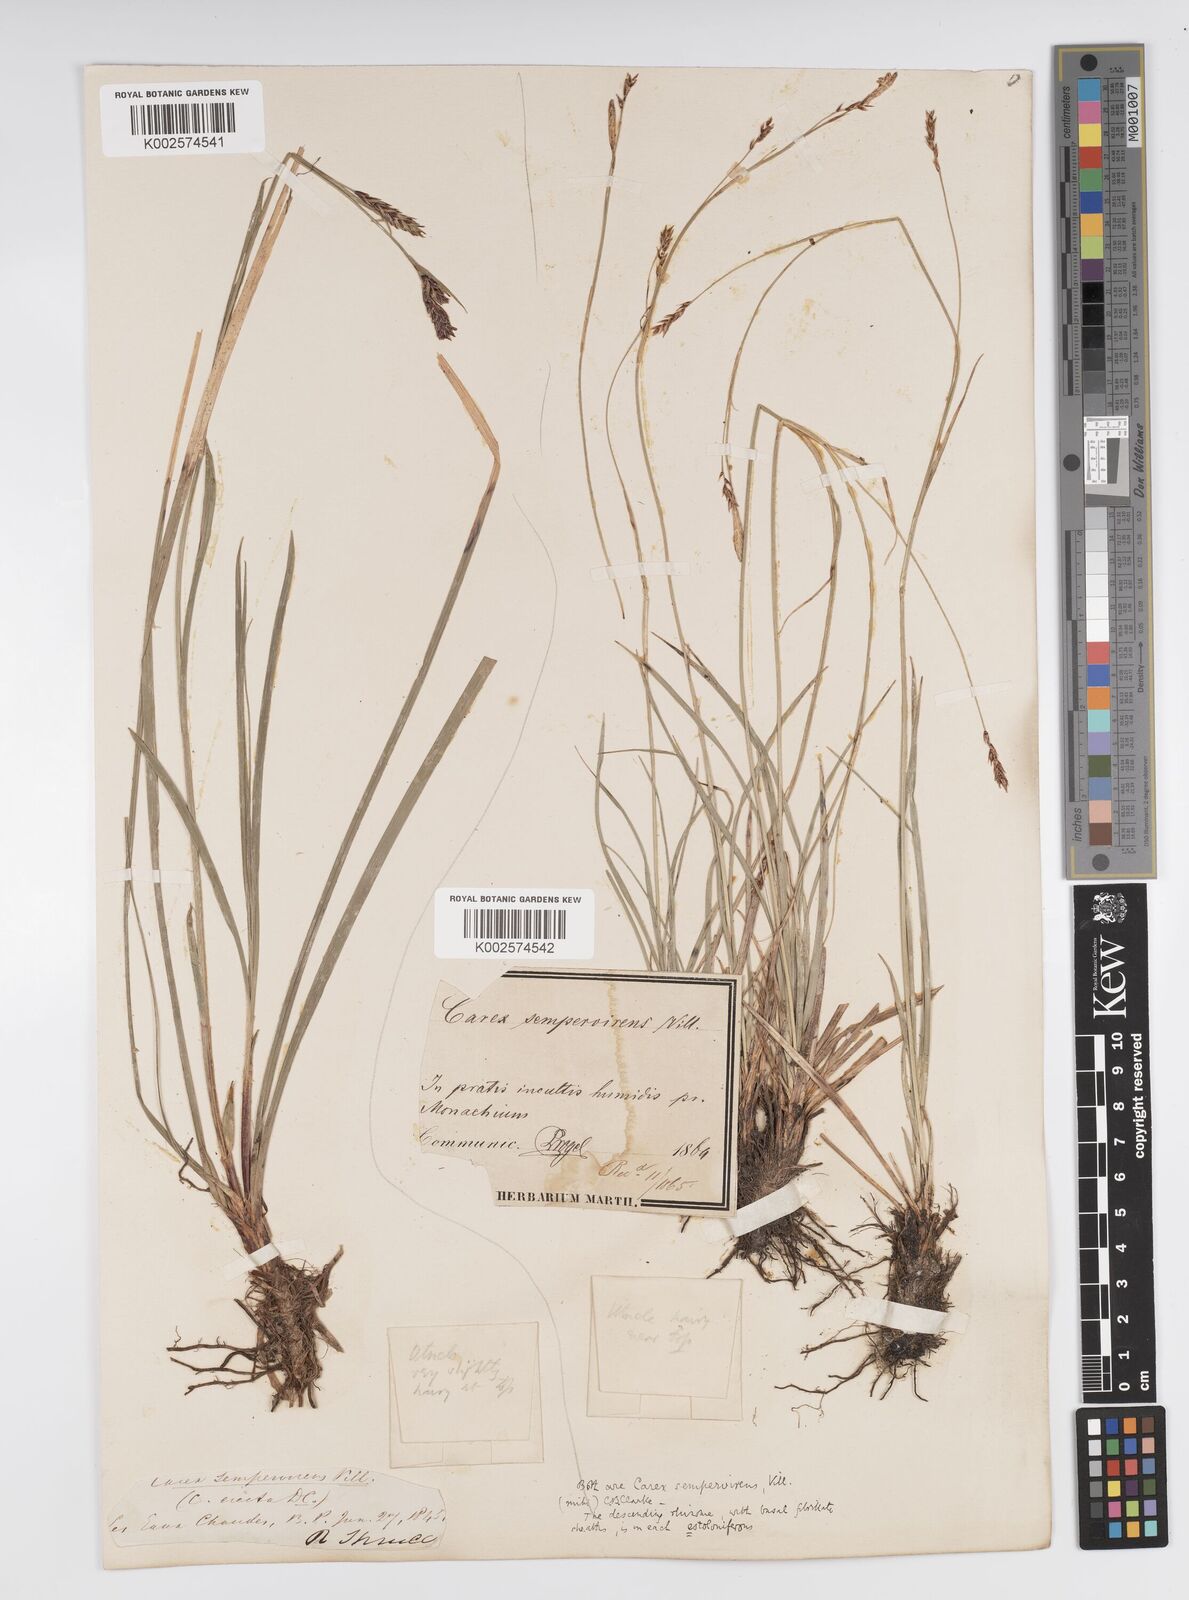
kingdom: Plantae
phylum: Tracheophyta
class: Liliopsida
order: Poales
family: Cyperaceae
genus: Carex
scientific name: Carex sempervirens
